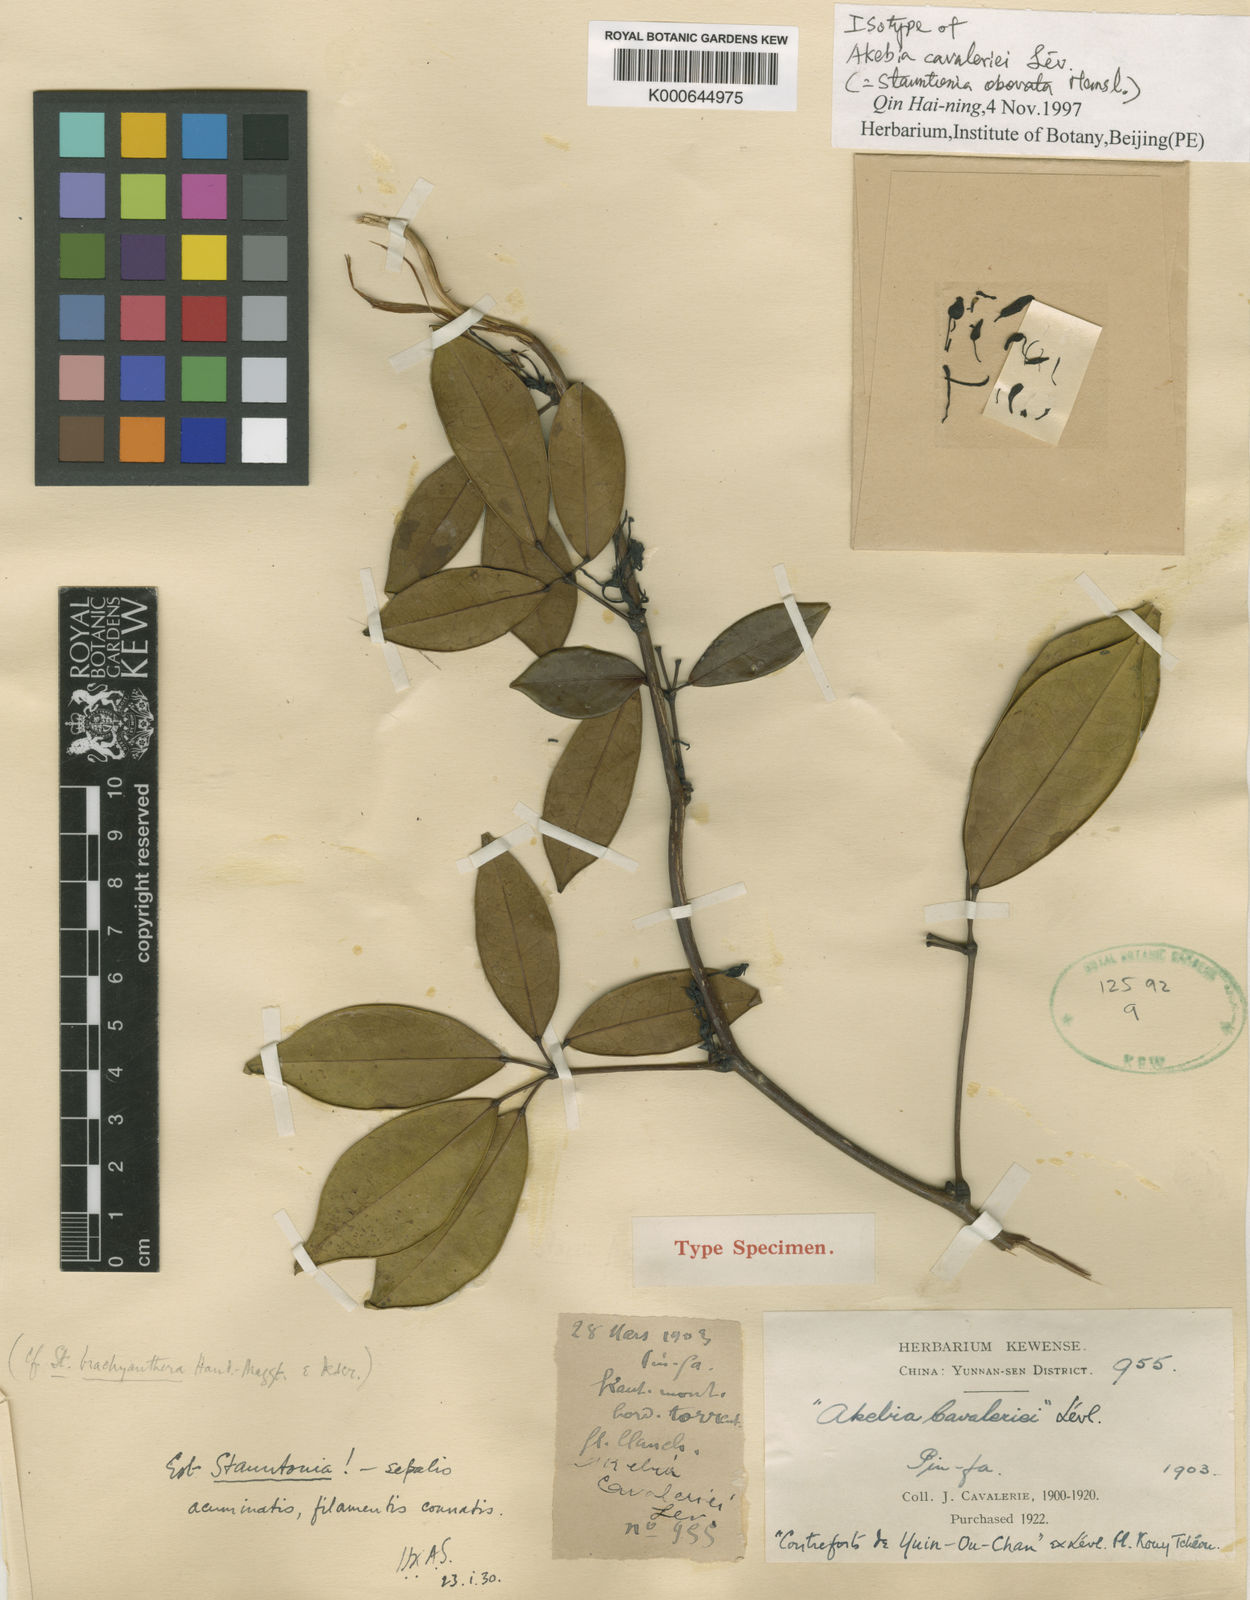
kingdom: Plantae
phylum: Tracheophyta
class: Magnoliopsida
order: Ranunculales
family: Lardizabalaceae
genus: Stauntonia
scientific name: Stauntonia cavalerieana
